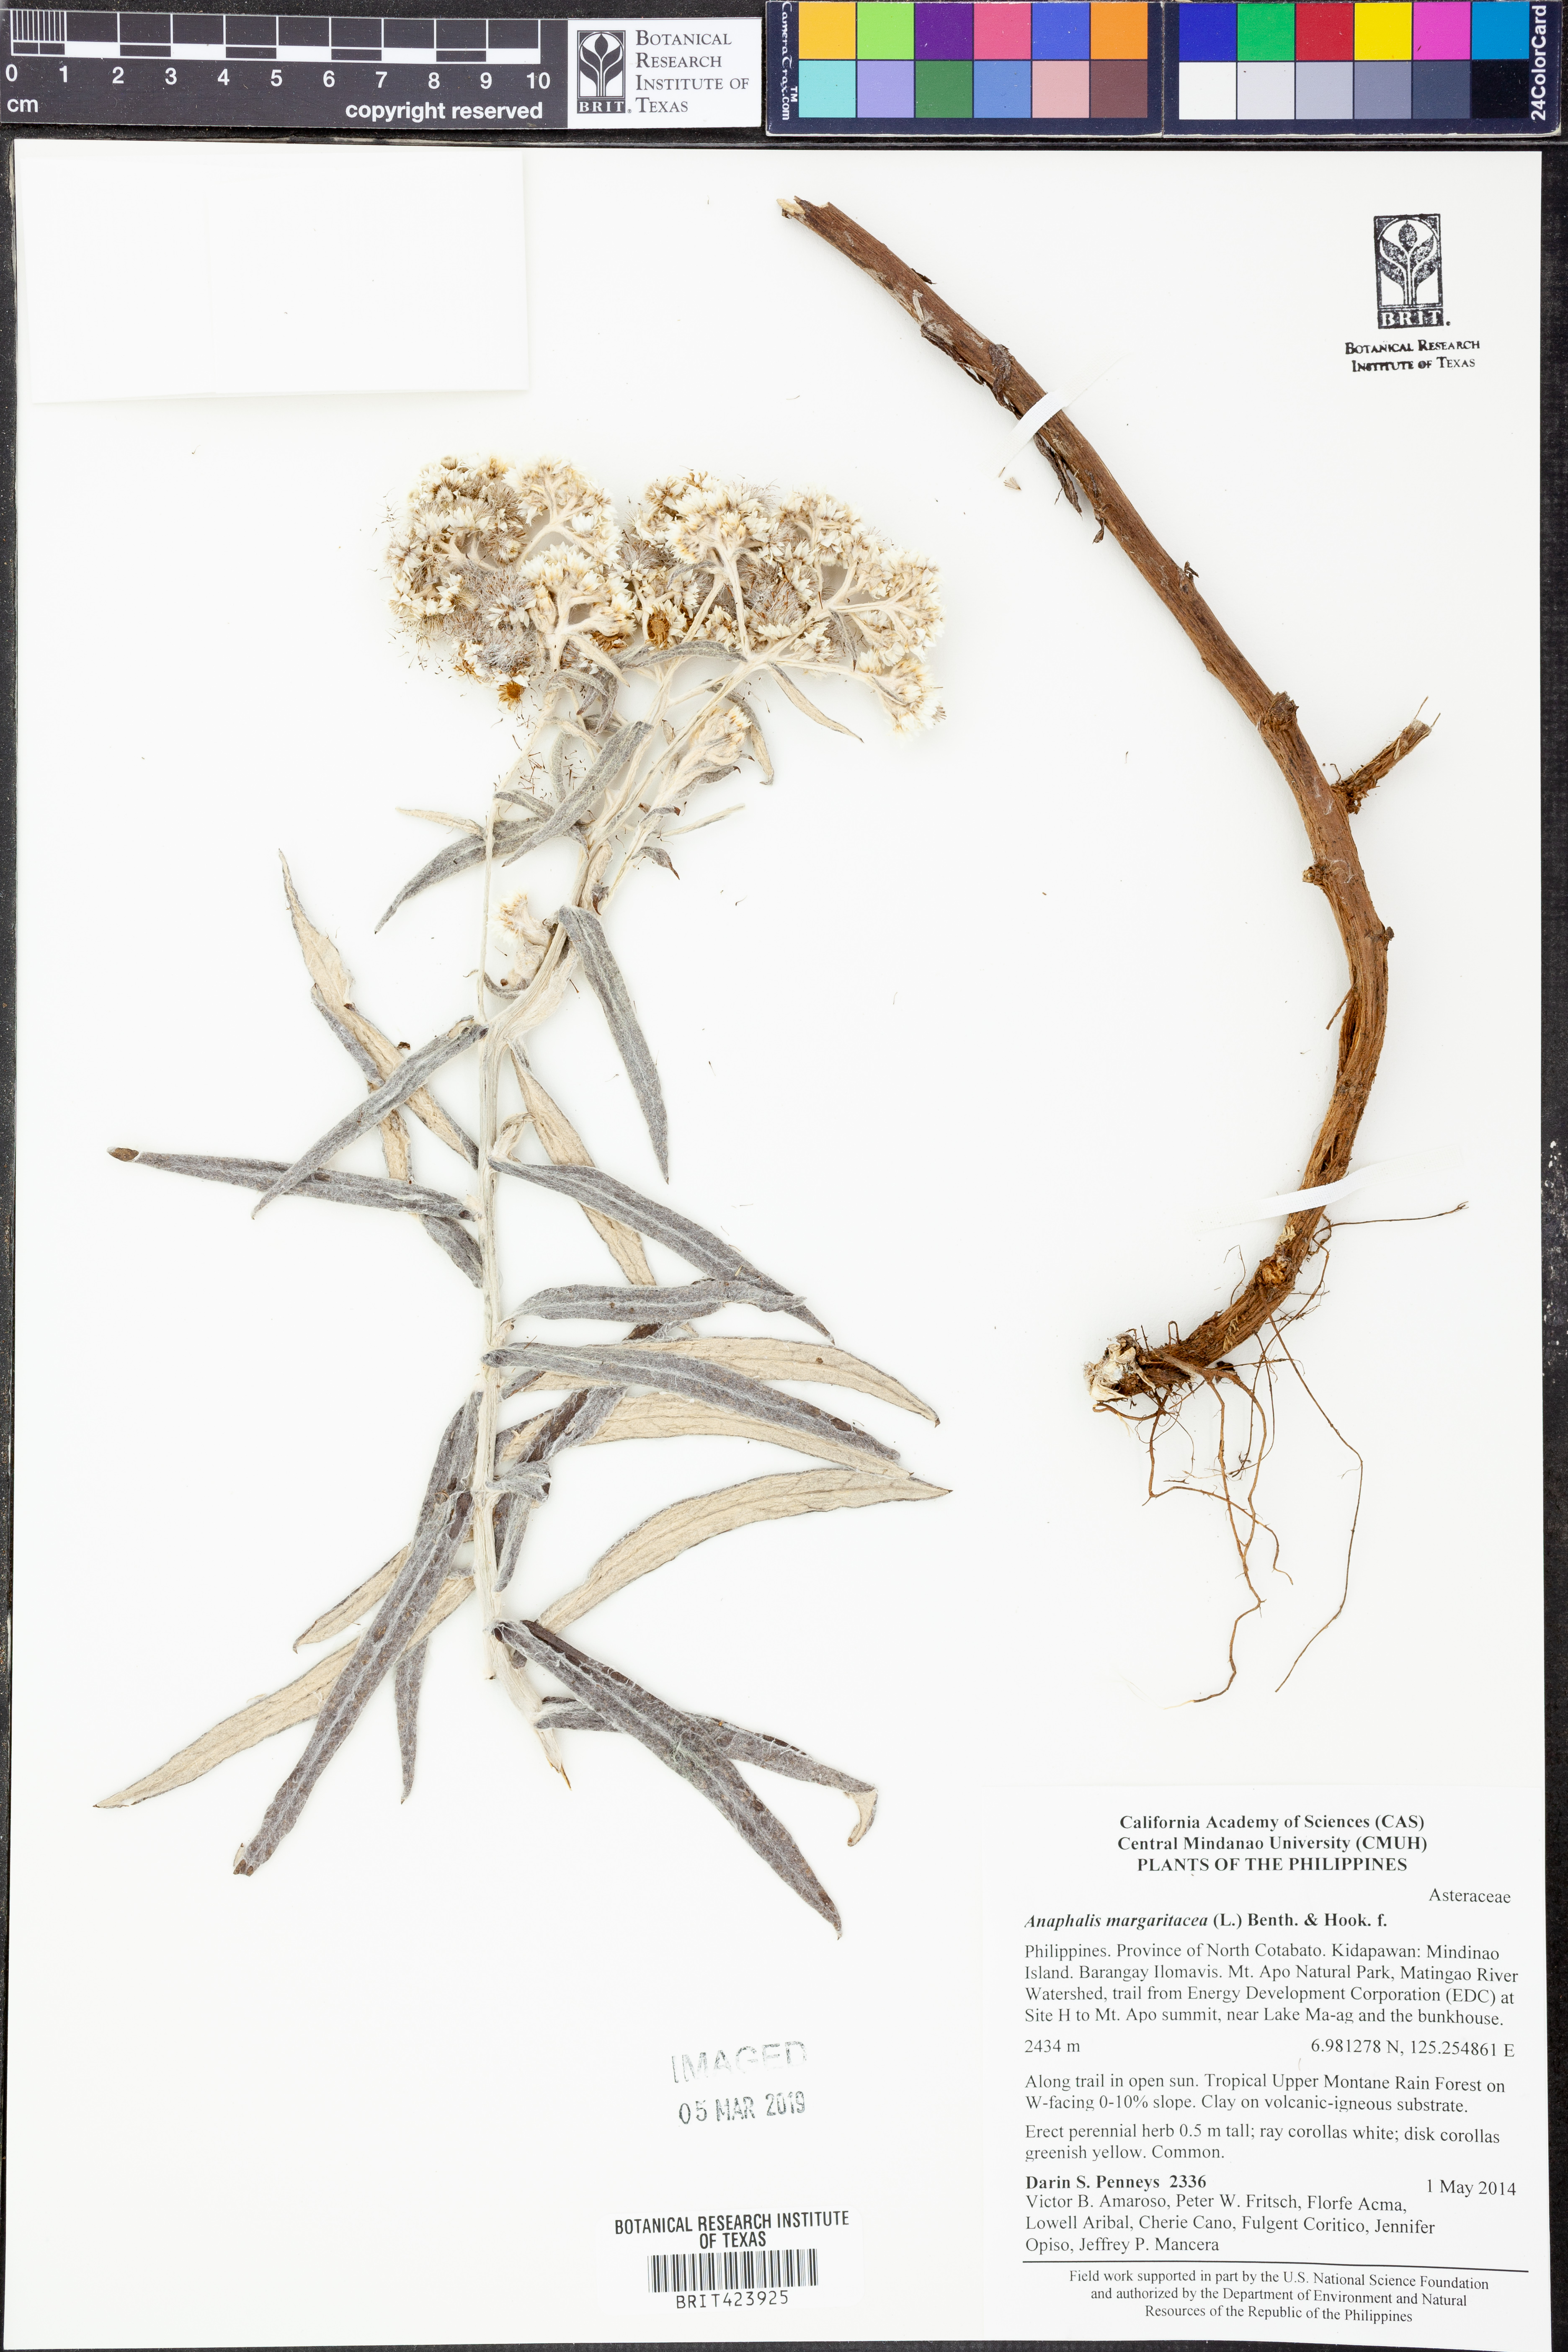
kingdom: Plantae
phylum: Tracheophyta
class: Magnoliopsida
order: Asterales
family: Asteraceae
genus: Anaphalis
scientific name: Anaphalis margaritacea
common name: Pearly everlasting
